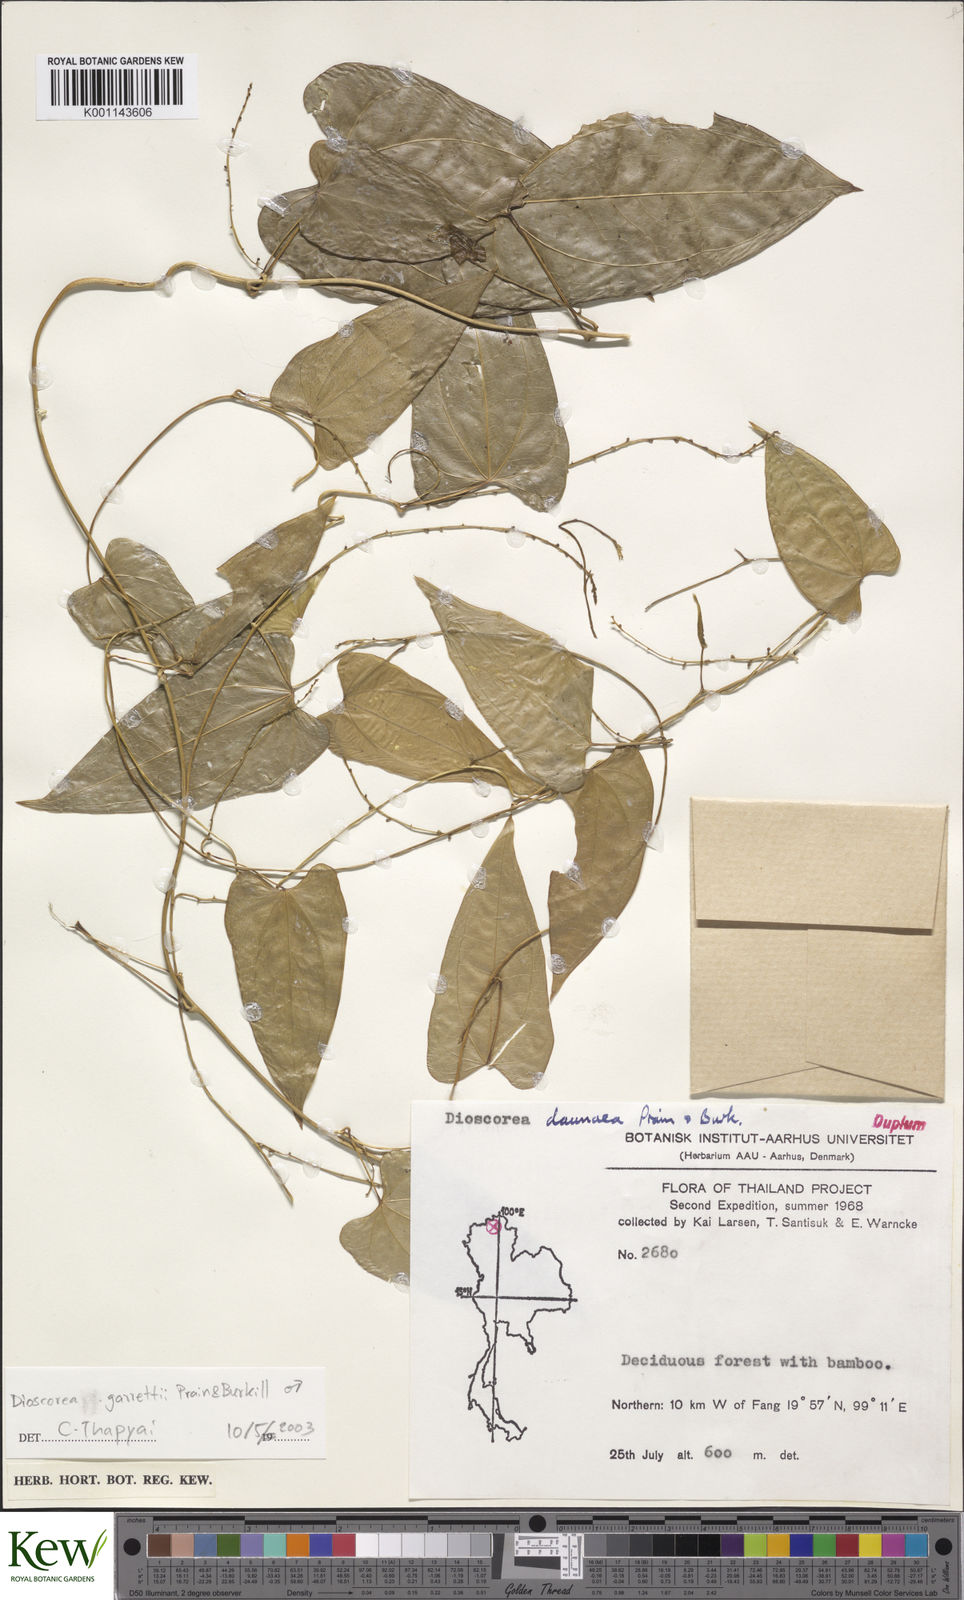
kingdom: Plantae
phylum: Tracheophyta
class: Liliopsida
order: Dioscoreales
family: Dioscoreaceae
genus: Dioscorea
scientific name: Dioscorea garrettii
